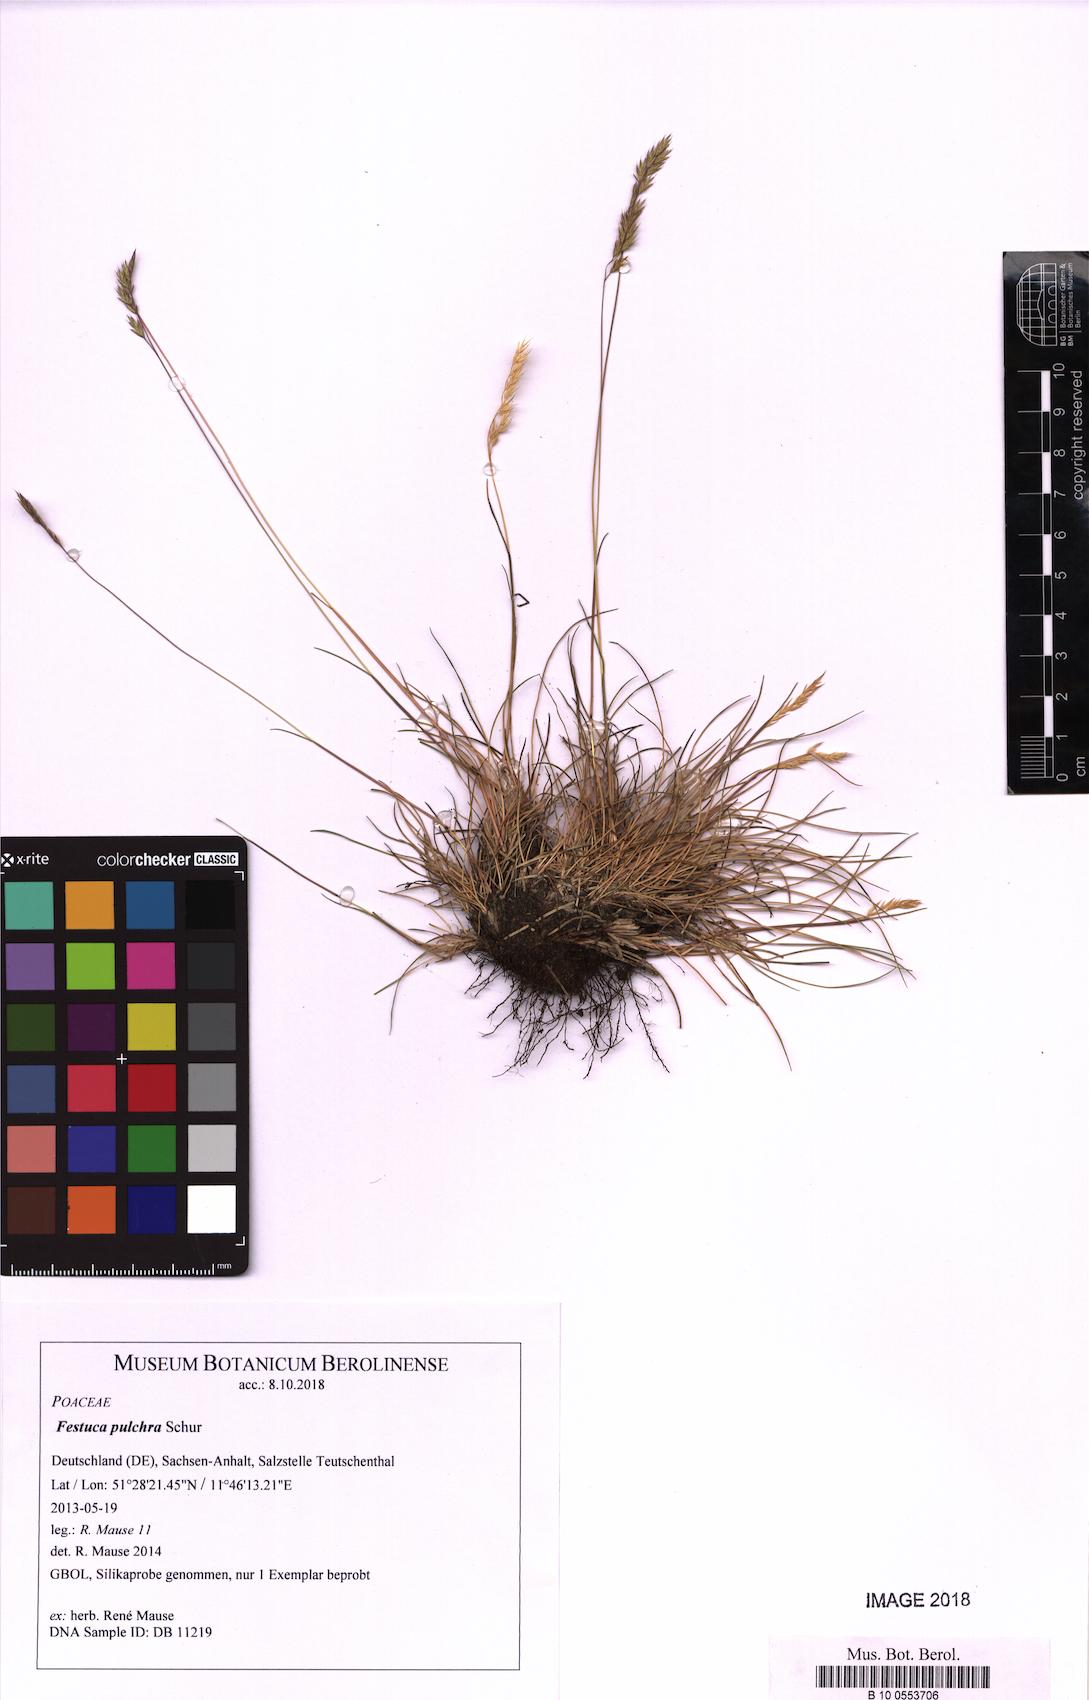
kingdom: Plantae
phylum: Tracheophyta
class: Liliopsida
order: Poales
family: Poaceae
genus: Festuca
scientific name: Festuca pulchra
